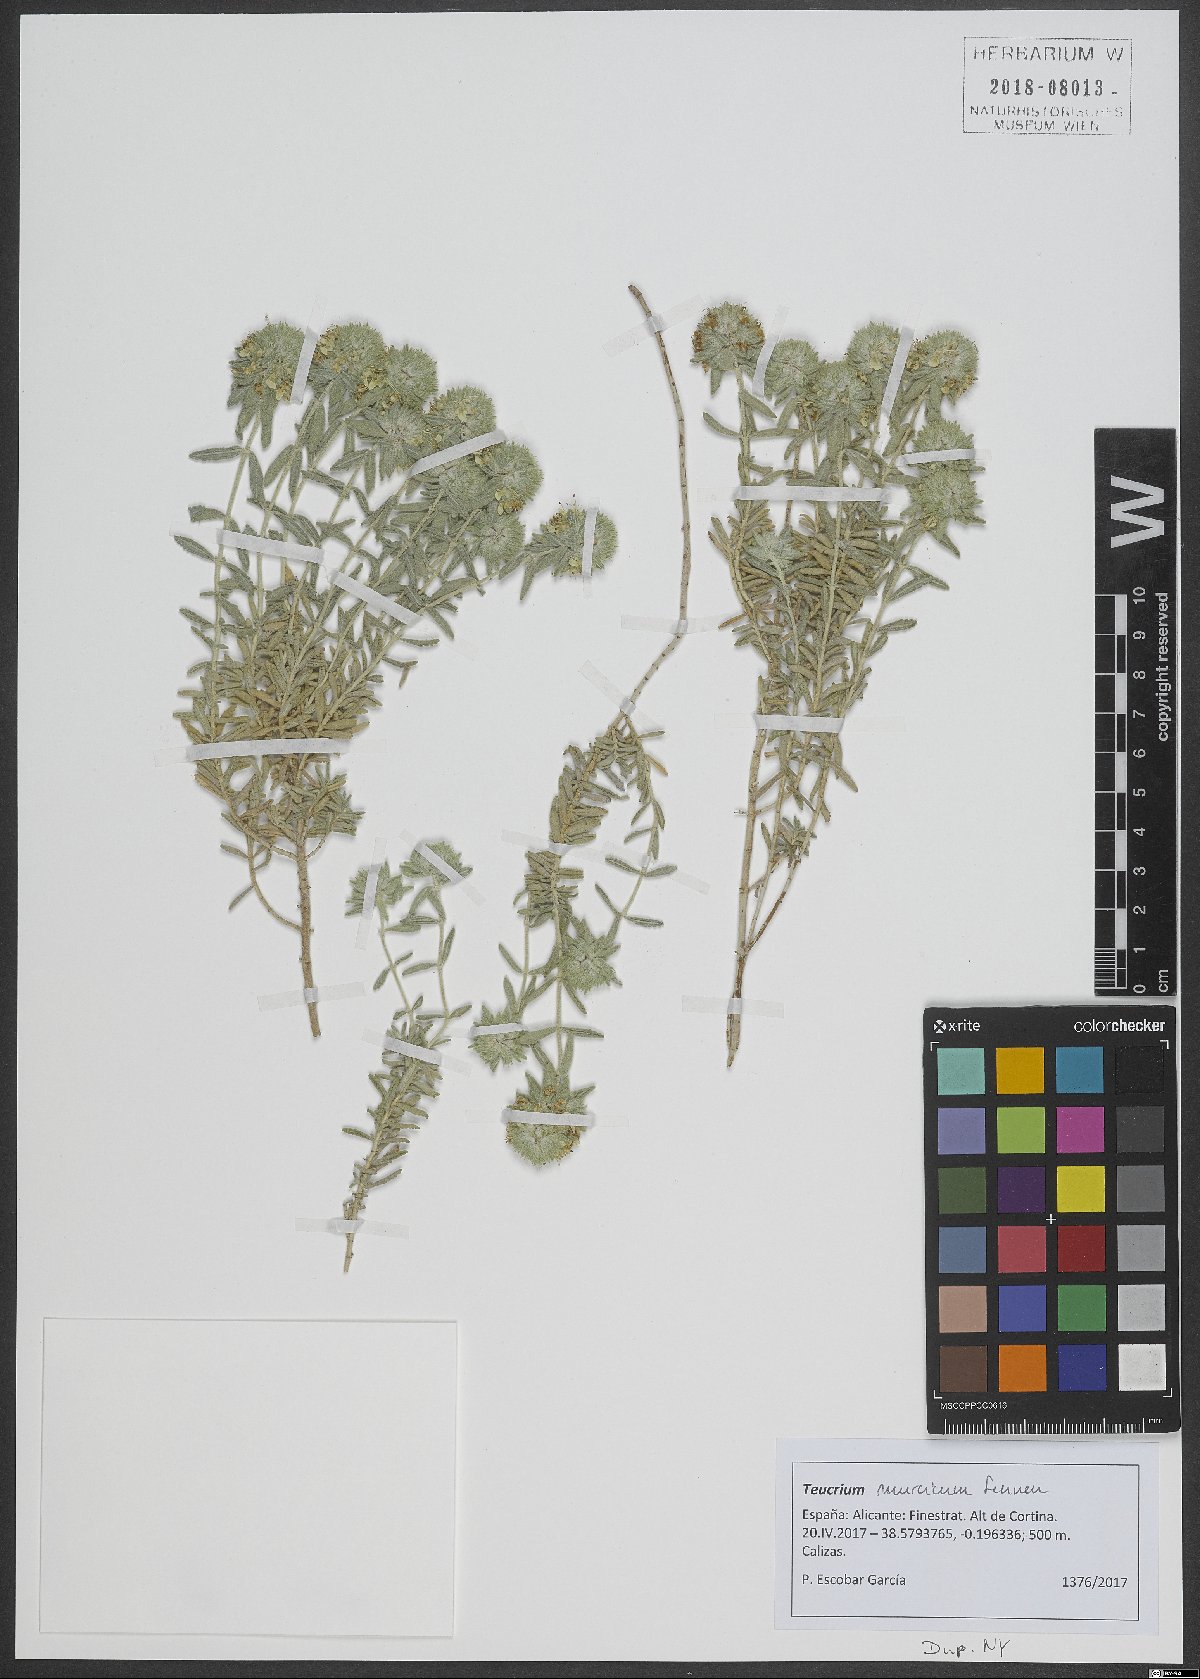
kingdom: Plantae
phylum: Tracheophyta
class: Magnoliopsida
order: Lamiales
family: Lamiaceae
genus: Teucrium
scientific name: Teucrium murcicum
